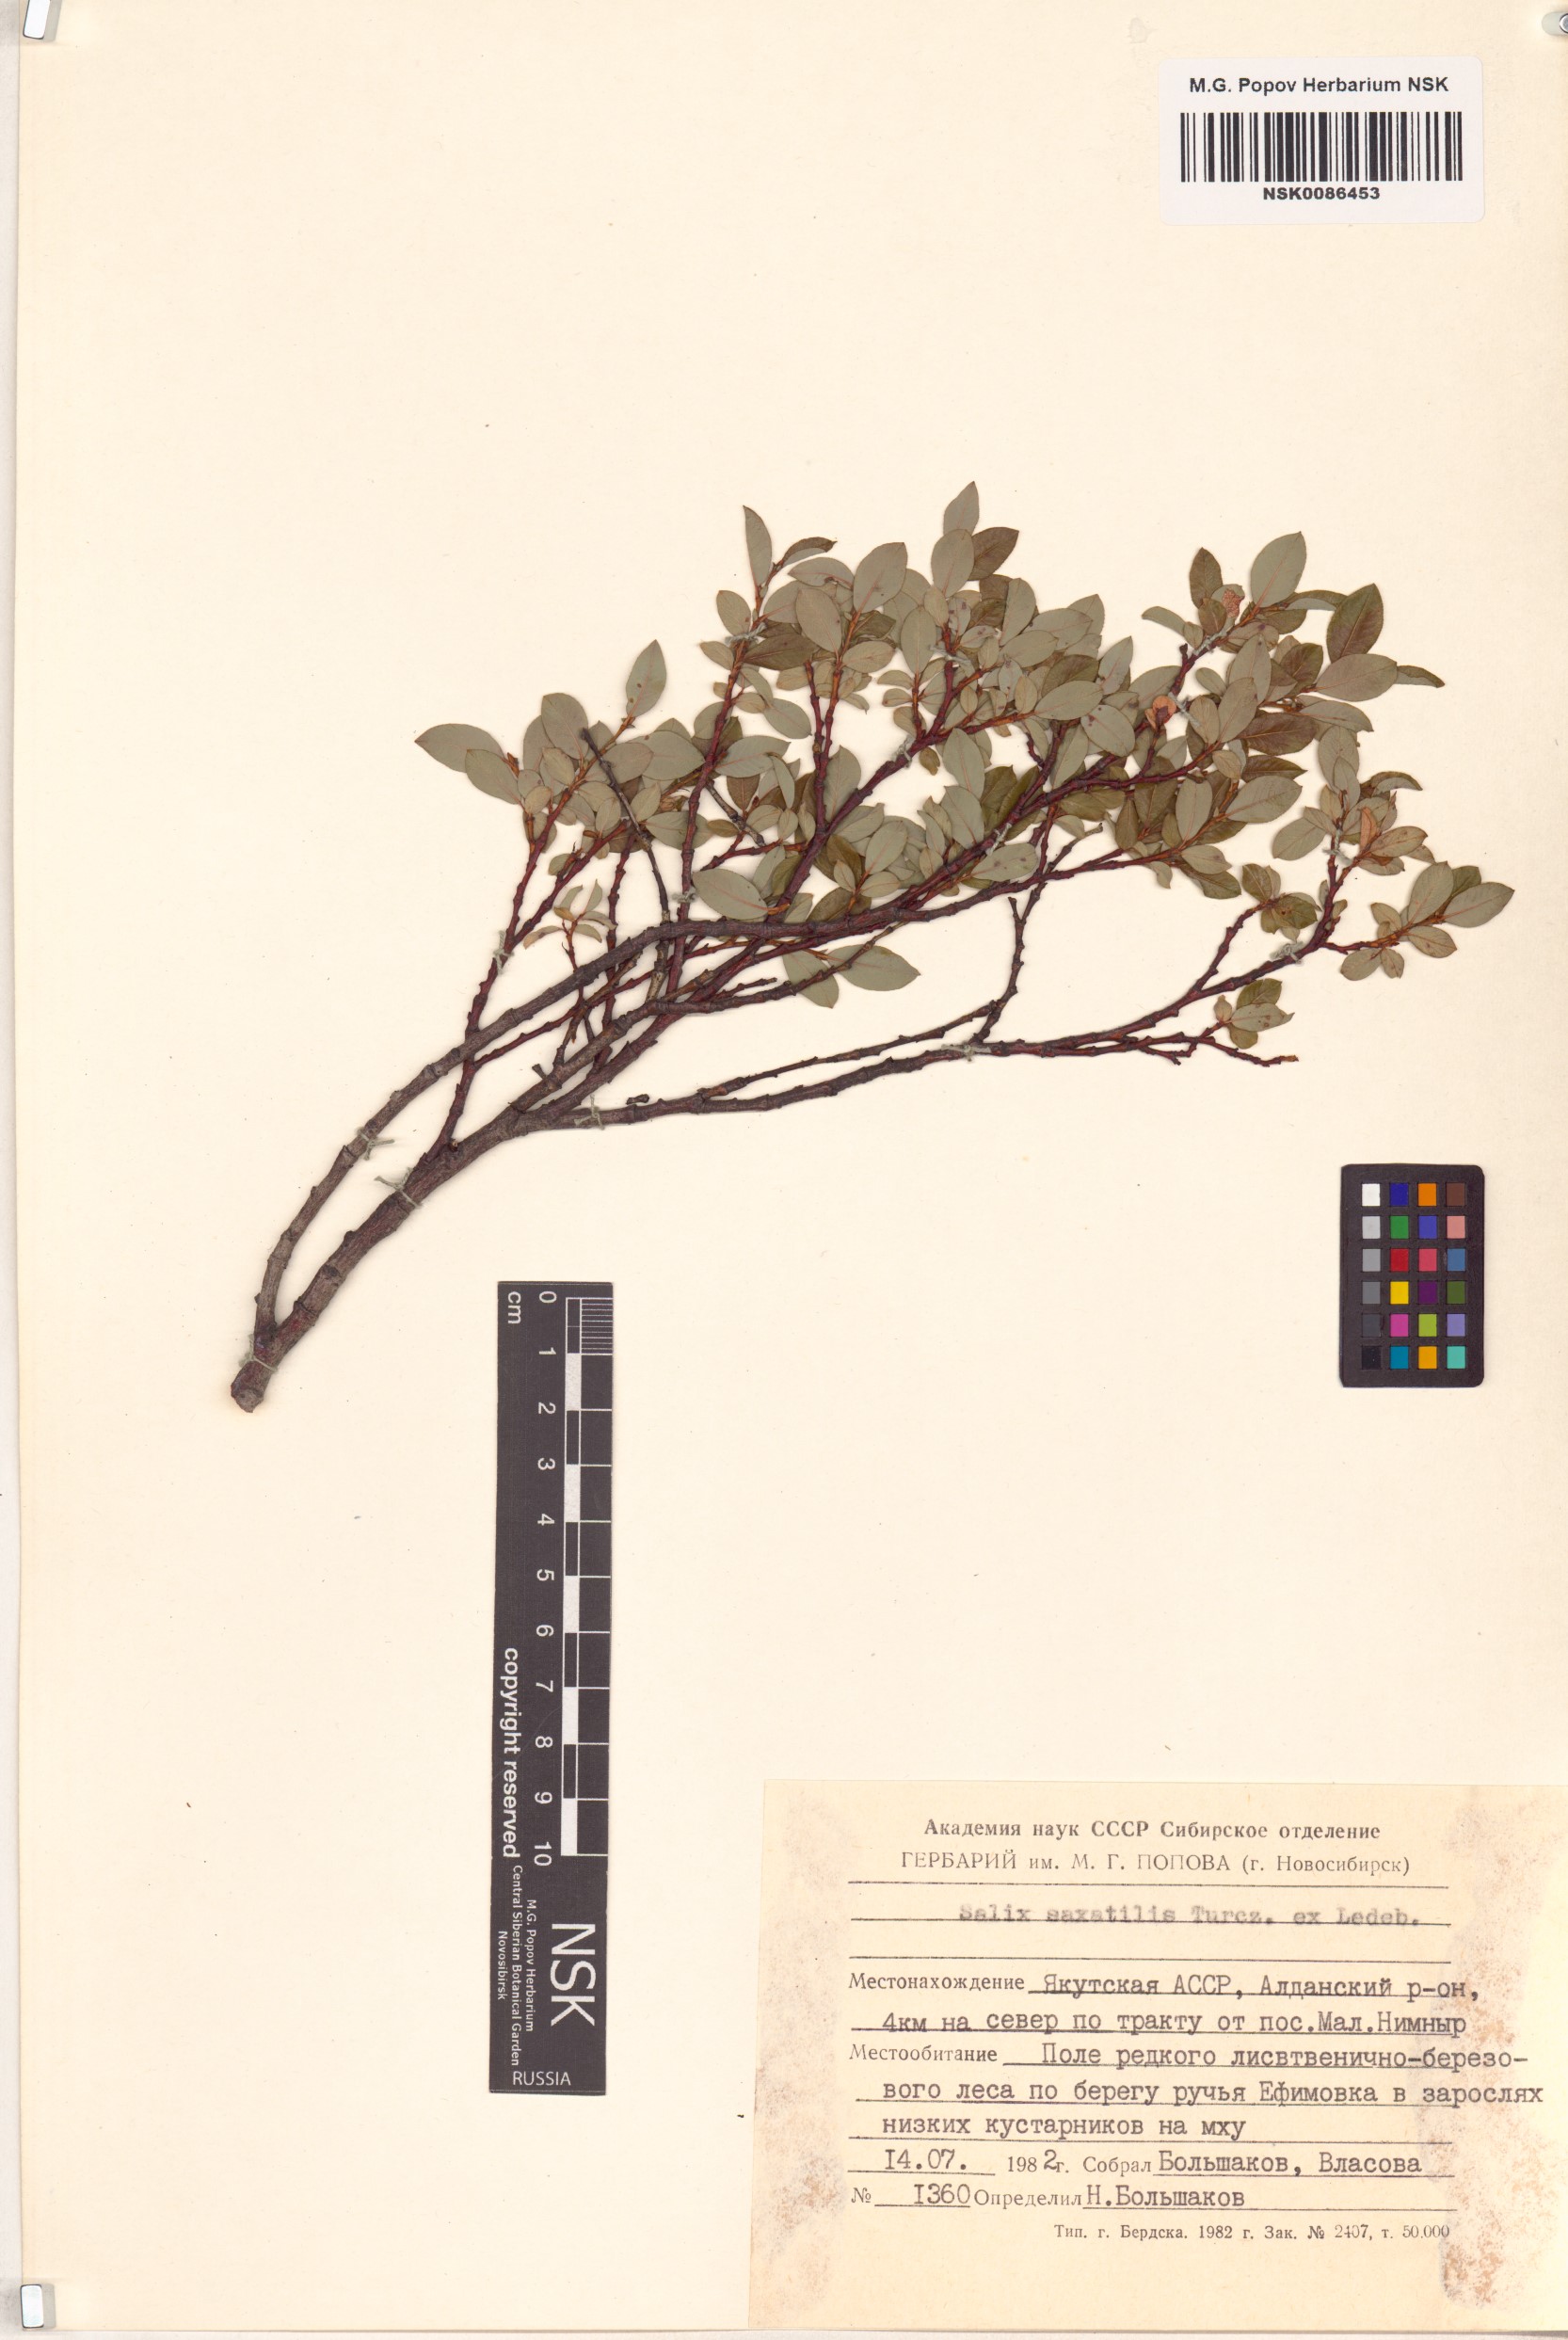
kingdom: Plantae
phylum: Tracheophyta
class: Magnoliopsida
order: Malpighiales
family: Salicaceae
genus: Salix
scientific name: Salix saxatilis
